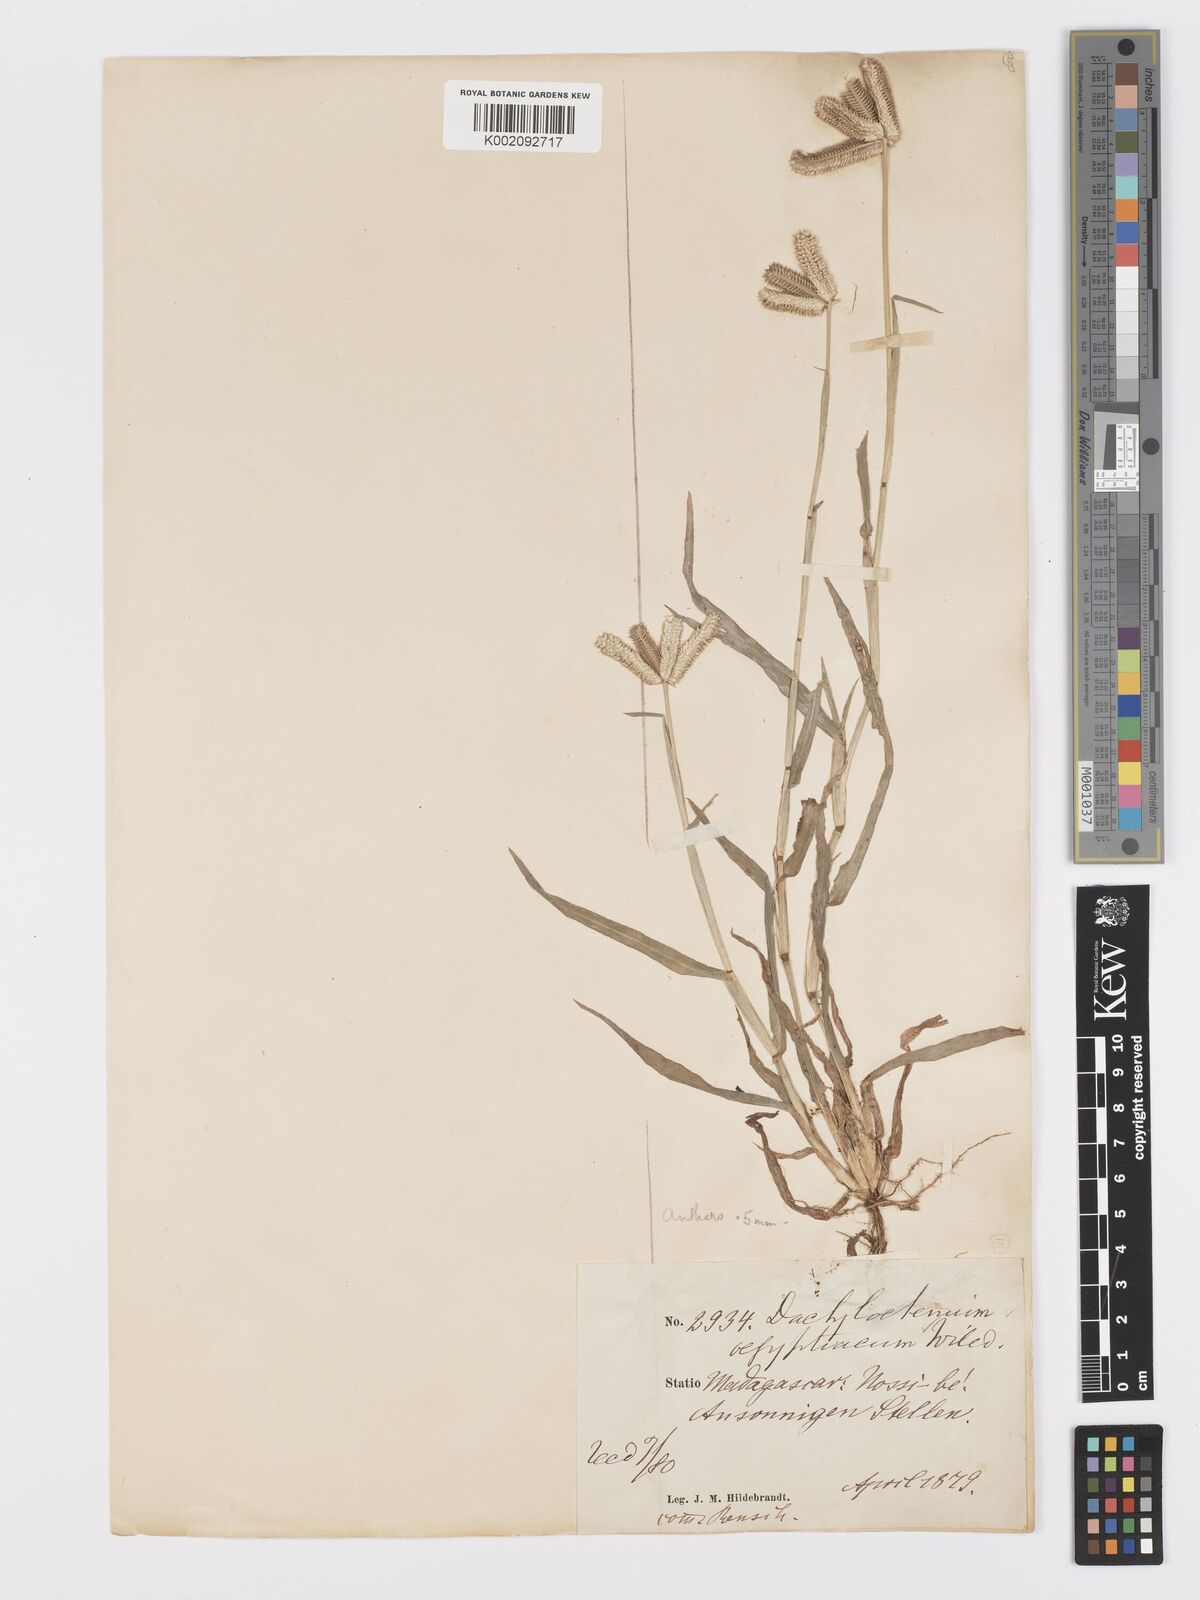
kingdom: Plantae
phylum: Tracheophyta
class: Liliopsida
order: Poales
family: Poaceae
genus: Dactyloctenium
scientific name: Dactyloctenium aegyptium
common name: Egyptian grass
